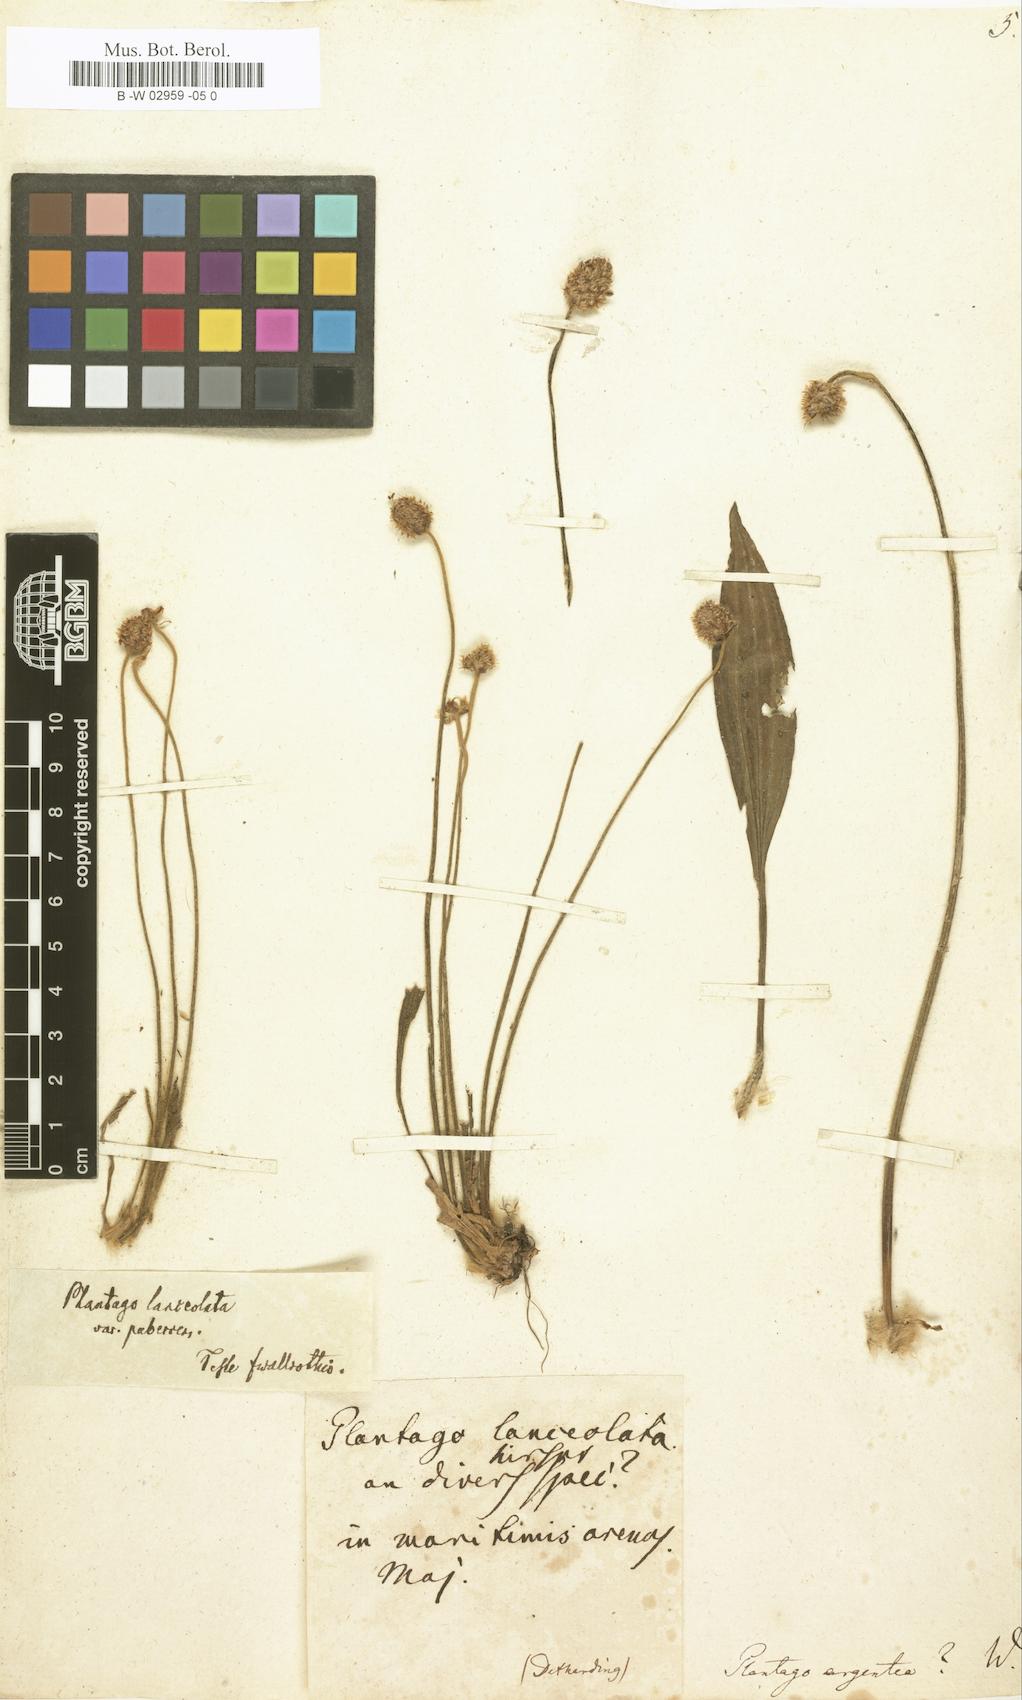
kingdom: Plantae
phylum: Tracheophyta
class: Magnoliopsida
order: Lamiales
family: Plantaginaceae
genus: Plantago
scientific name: Plantago argentea
